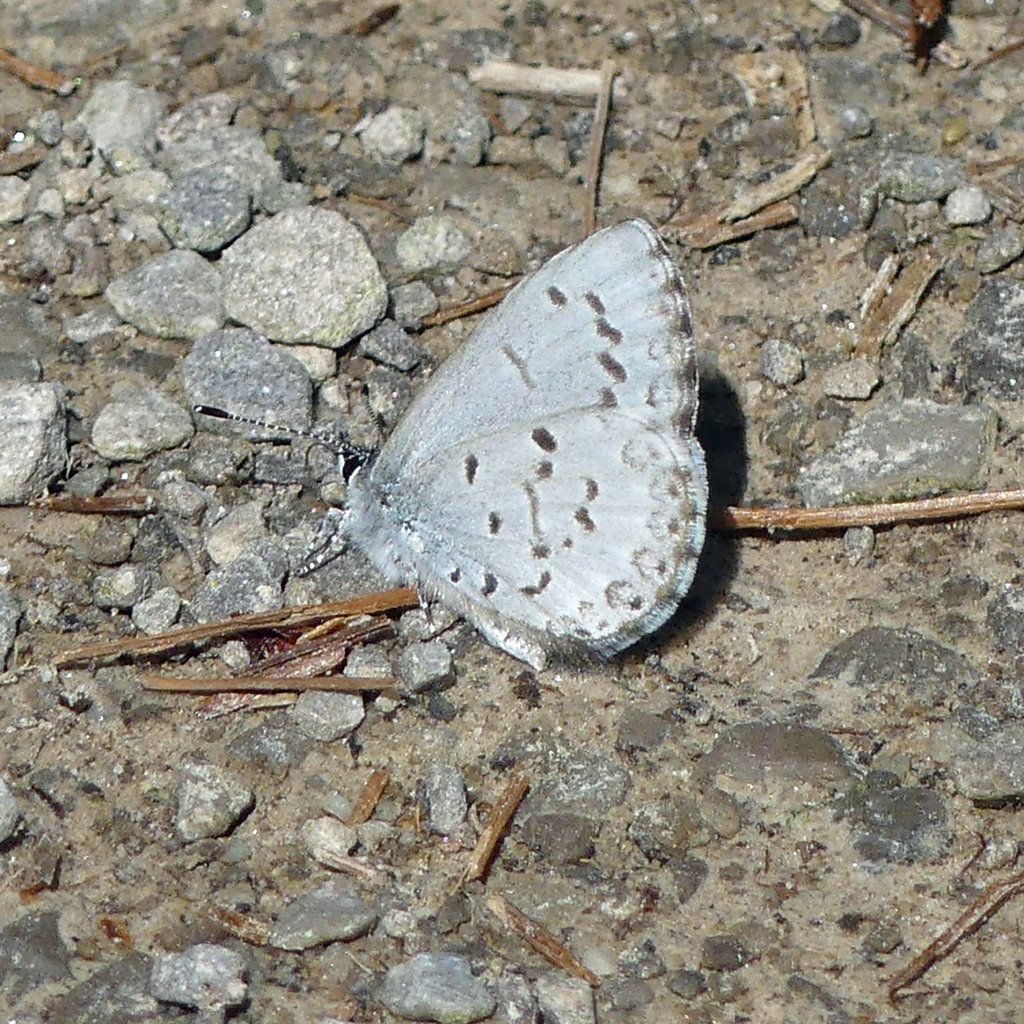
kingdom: Animalia
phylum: Arthropoda
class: Insecta
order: Lepidoptera
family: Lycaenidae
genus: Celastrina
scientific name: Celastrina
